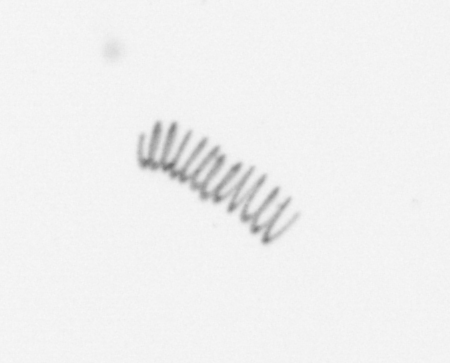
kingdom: Chromista
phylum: Ochrophyta
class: Bacillariophyceae
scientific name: Bacillariophyceae
